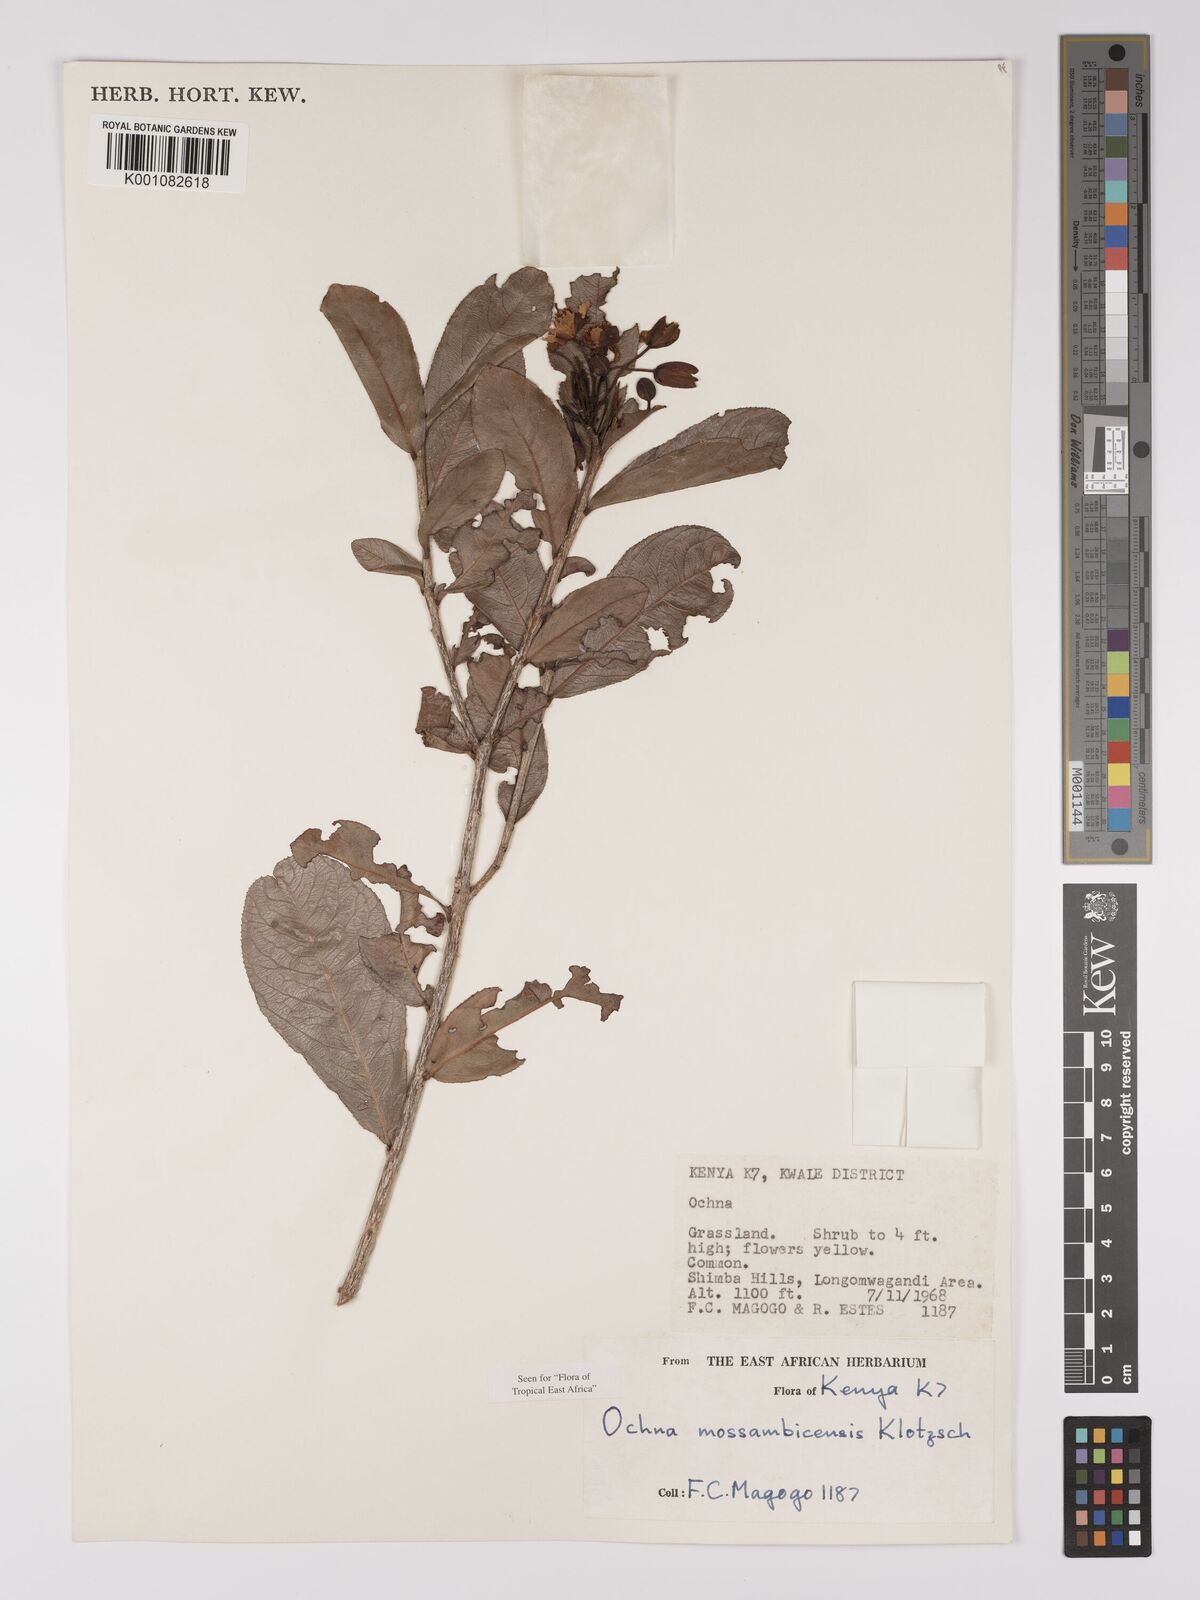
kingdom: Plantae
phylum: Tracheophyta
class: Magnoliopsida
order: Malpighiales
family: Ochnaceae
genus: Ochna
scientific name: Ochna atropurpurea
